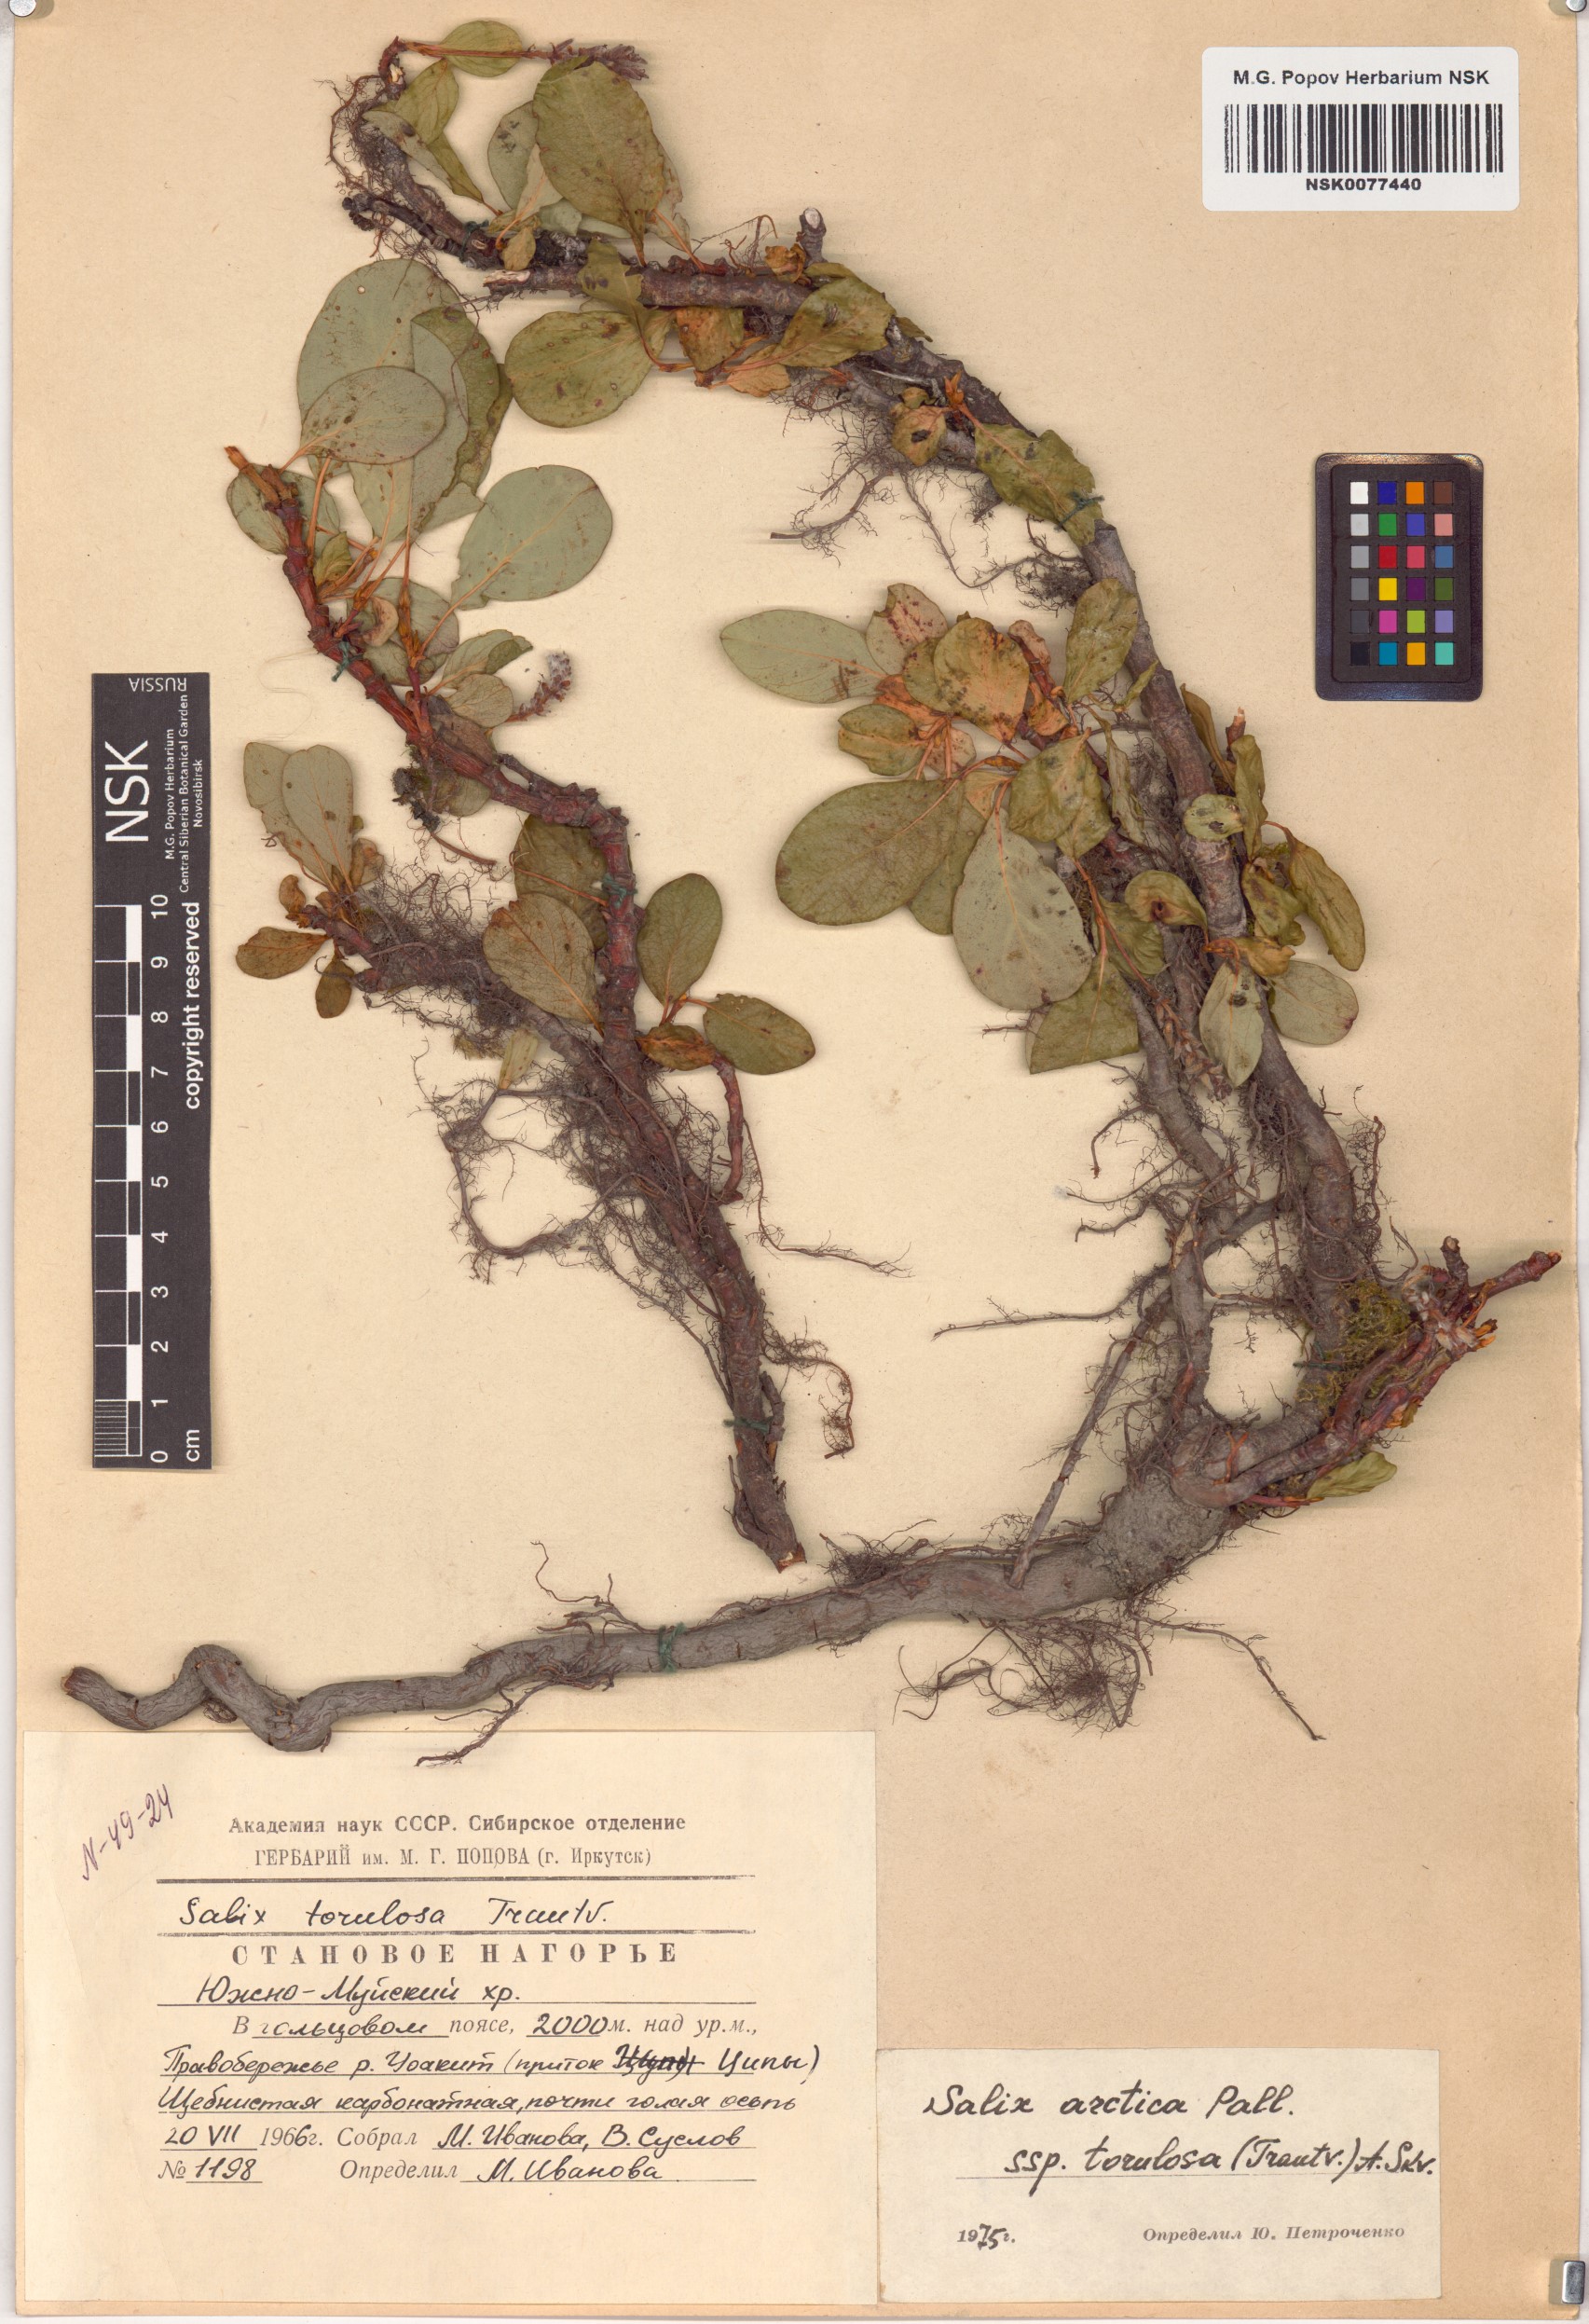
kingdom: Plantae
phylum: Tracheophyta
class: Magnoliopsida
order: Malpighiales
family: Salicaceae
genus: Salix
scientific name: Salix arctica
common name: Arctic willow
